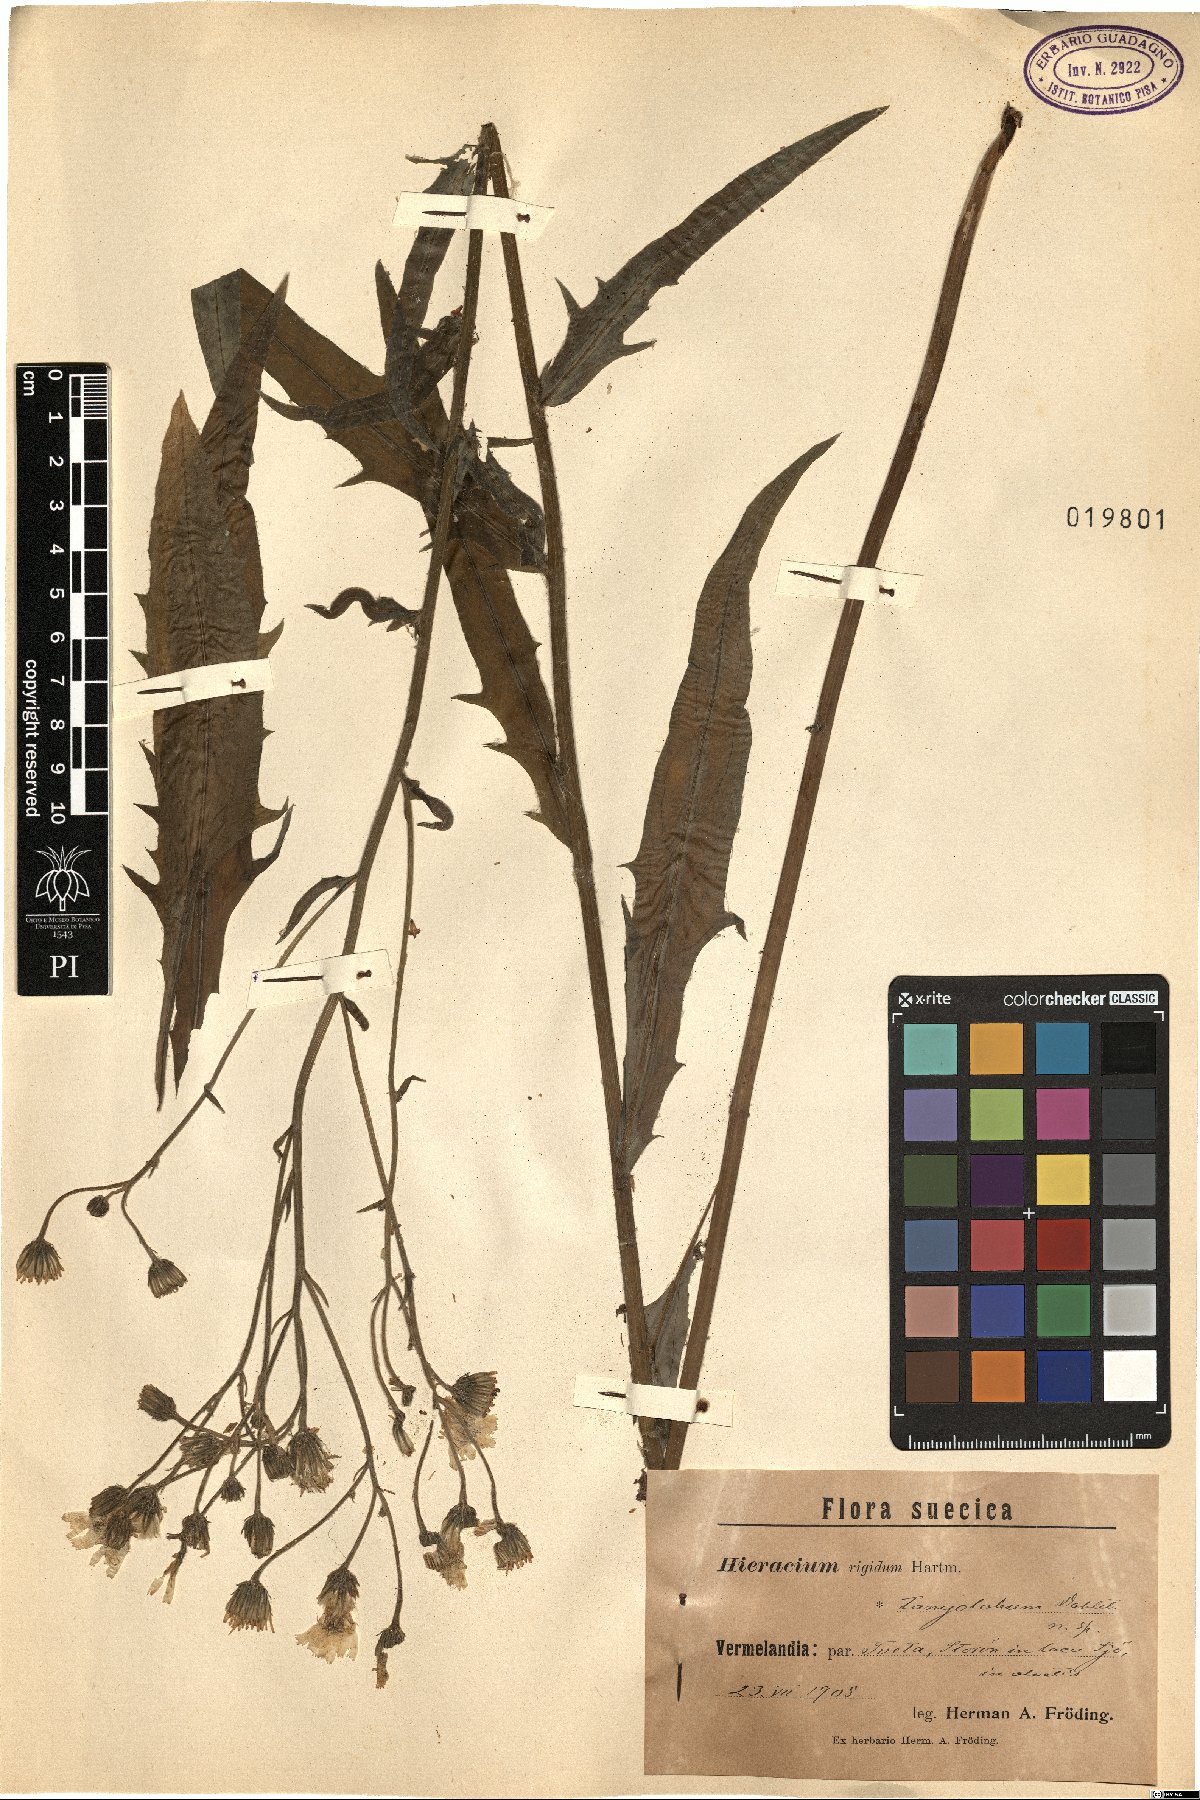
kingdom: Plantae
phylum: Tracheophyta
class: Magnoliopsida
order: Asterales
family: Asteraceae
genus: Hieracium
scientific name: Hieracium laevigatum
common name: Smooth hawkweed
